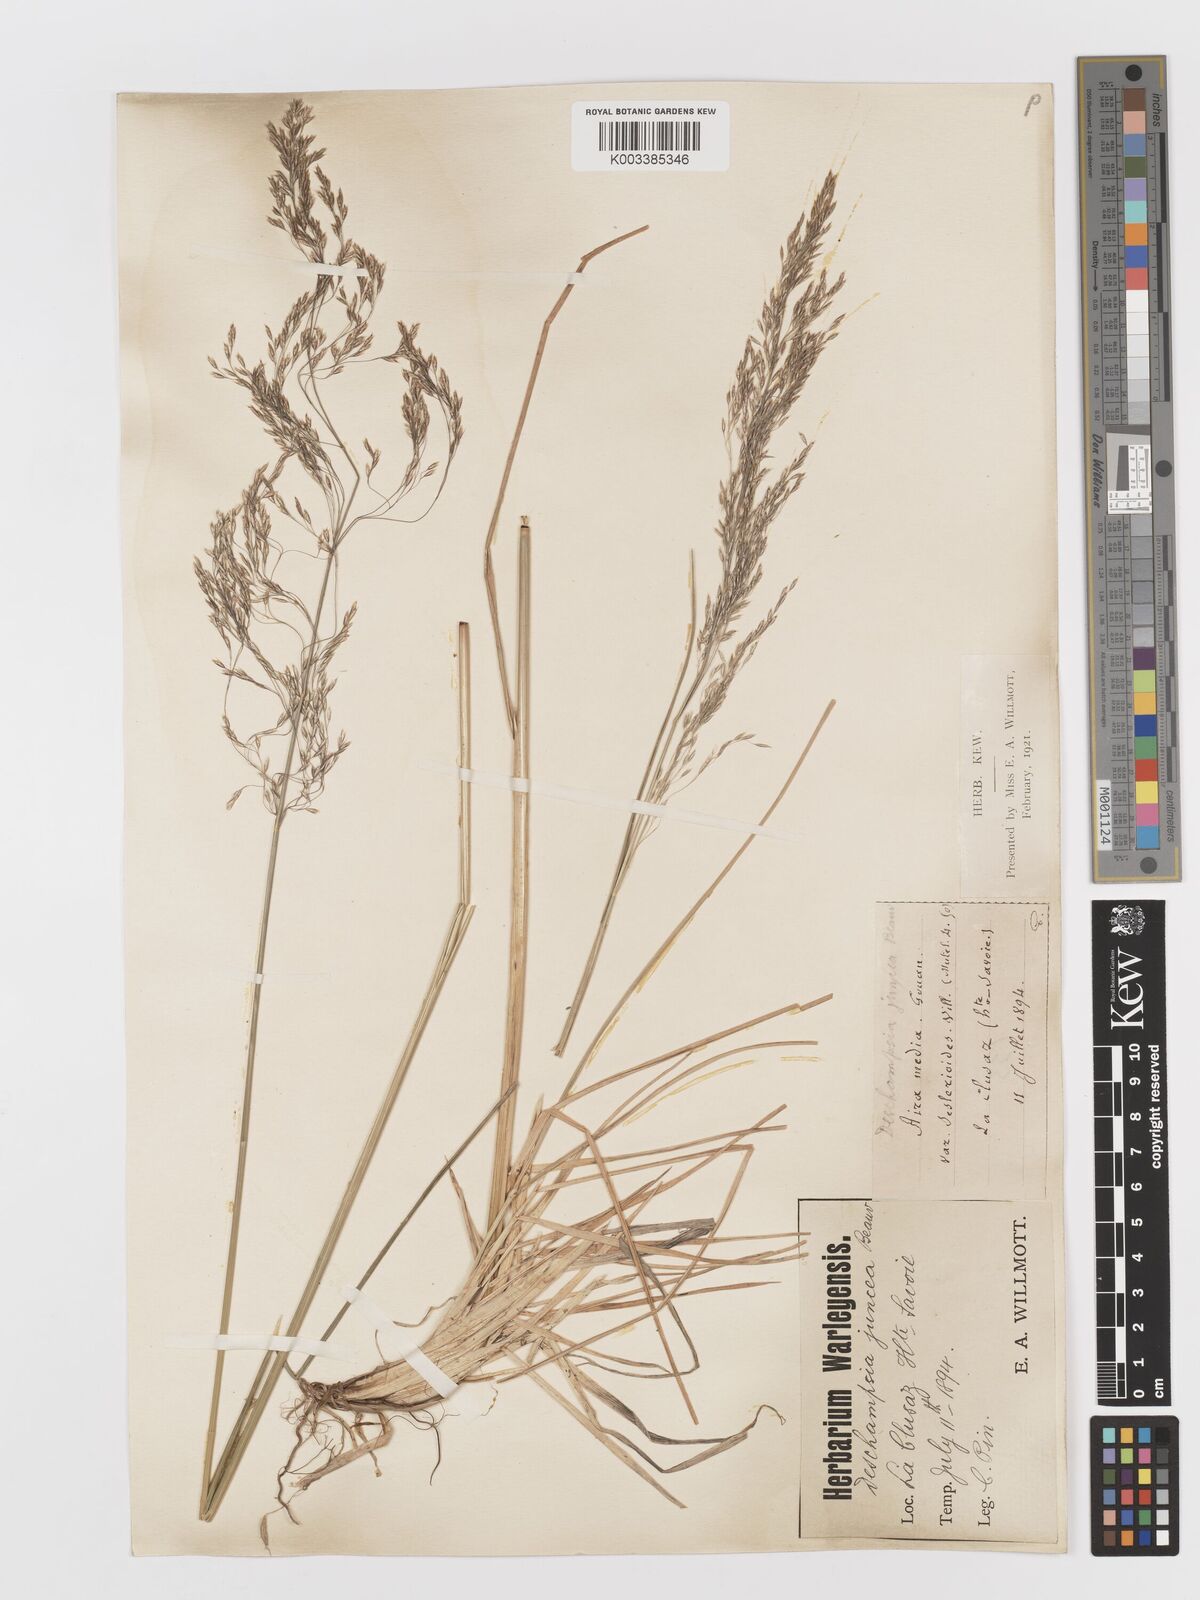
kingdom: Plantae
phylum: Tracheophyta
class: Liliopsida
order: Poales
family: Poaceae
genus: Deschampsia
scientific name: Deschampsia cespitosa
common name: Tufted hair-grass
